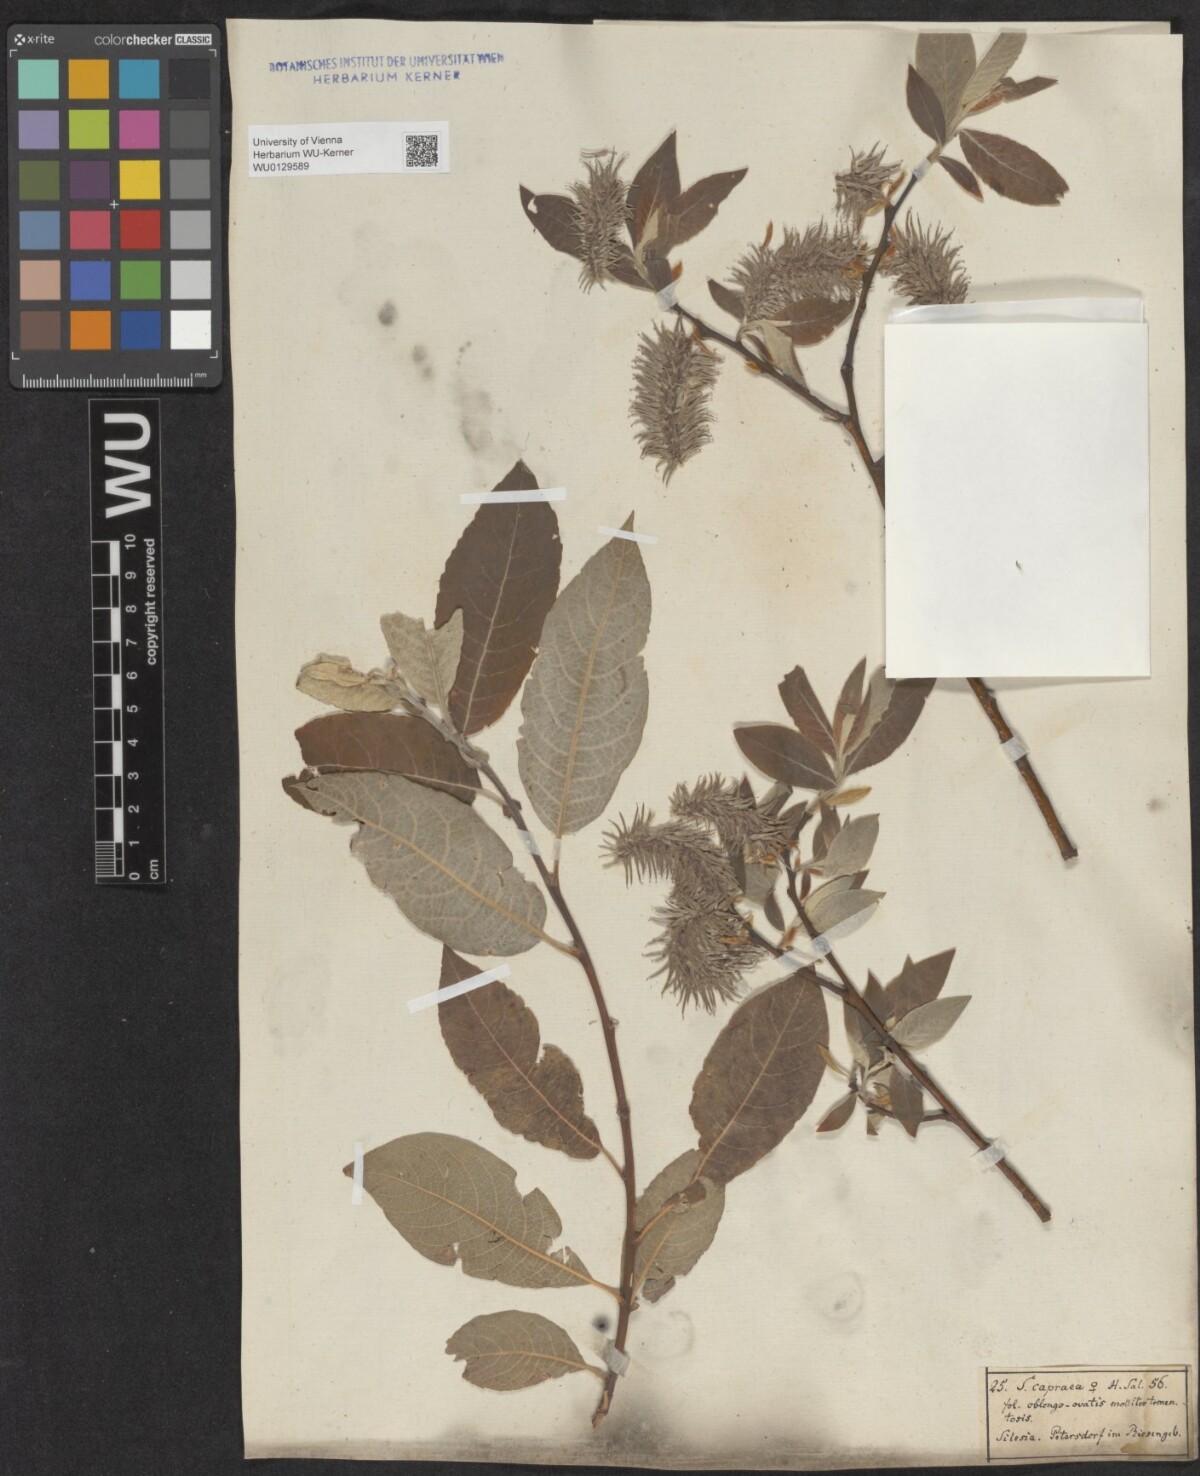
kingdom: Plantae
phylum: Tracheophyta
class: Magnoliopsida
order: Malpighiales
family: Salicaceae
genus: Salix
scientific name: Salix caprea
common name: Goat willow
